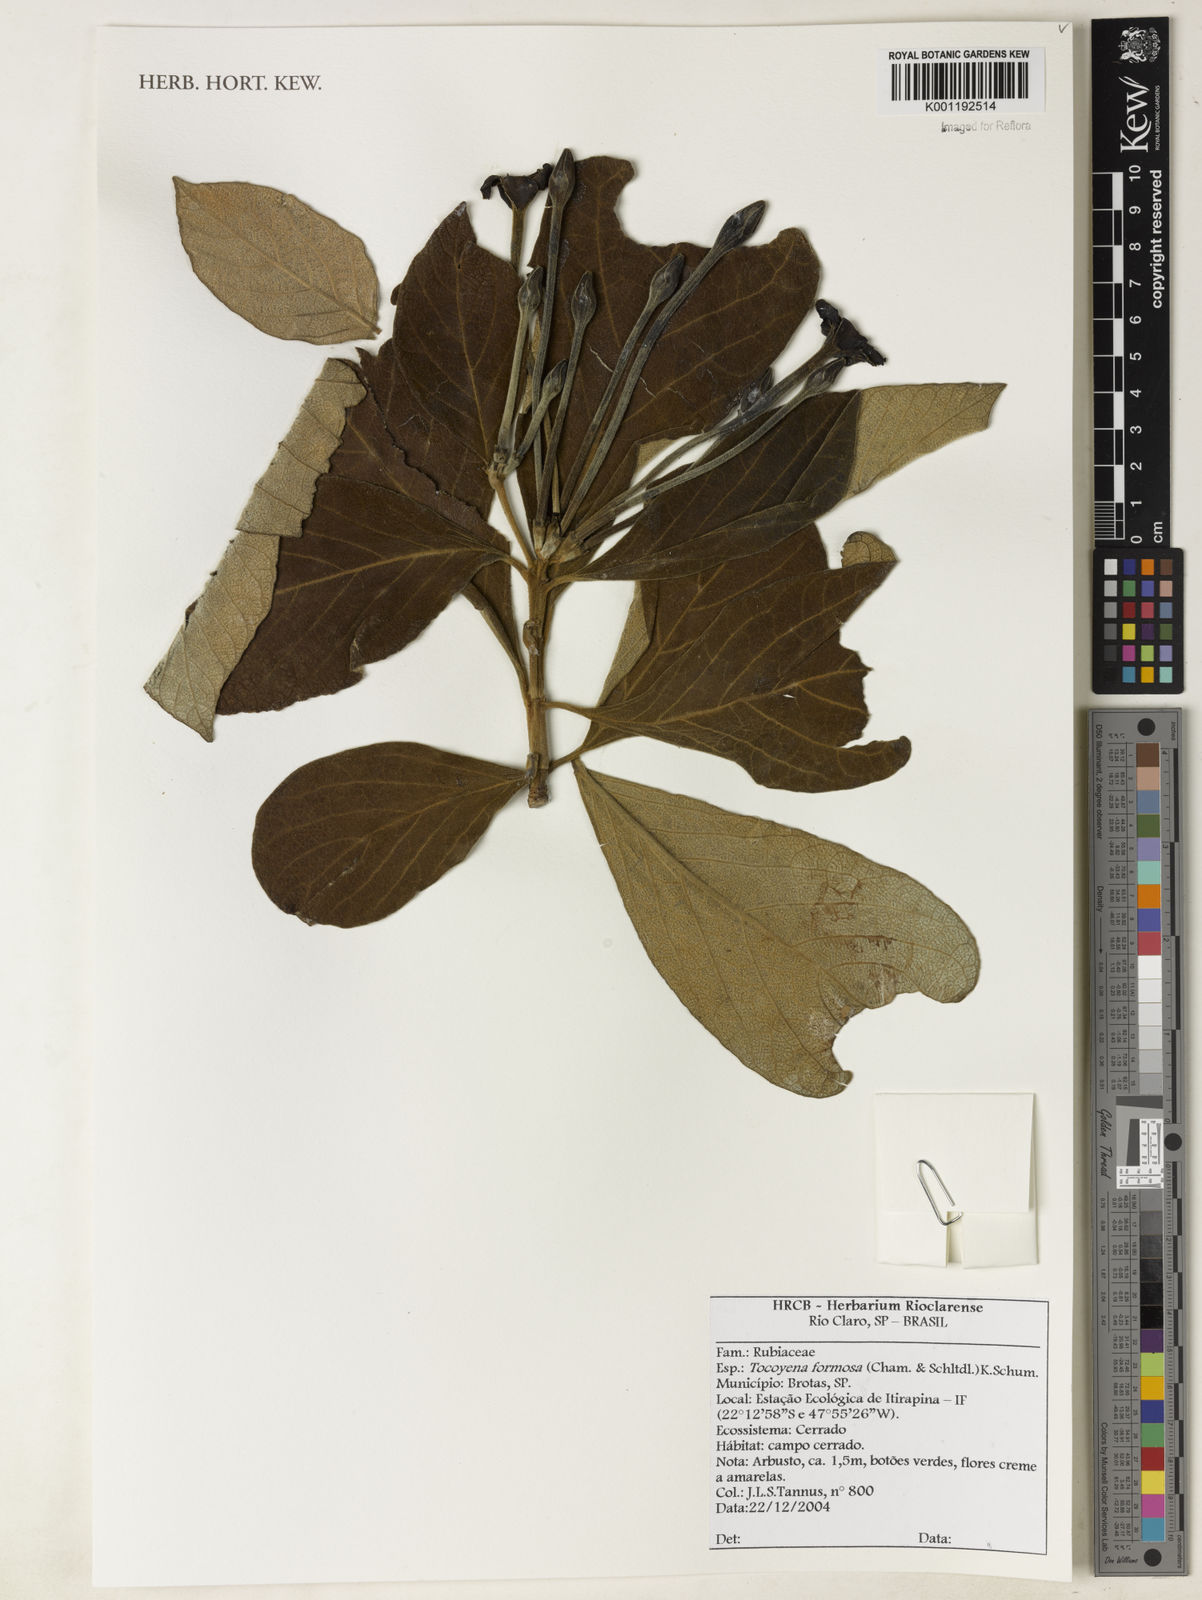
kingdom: Plantae
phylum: Tracheophyta
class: Magnoliopsida
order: Gentianales
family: Rubiaceae
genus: Tocoyena
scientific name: Tocoyena formosa
